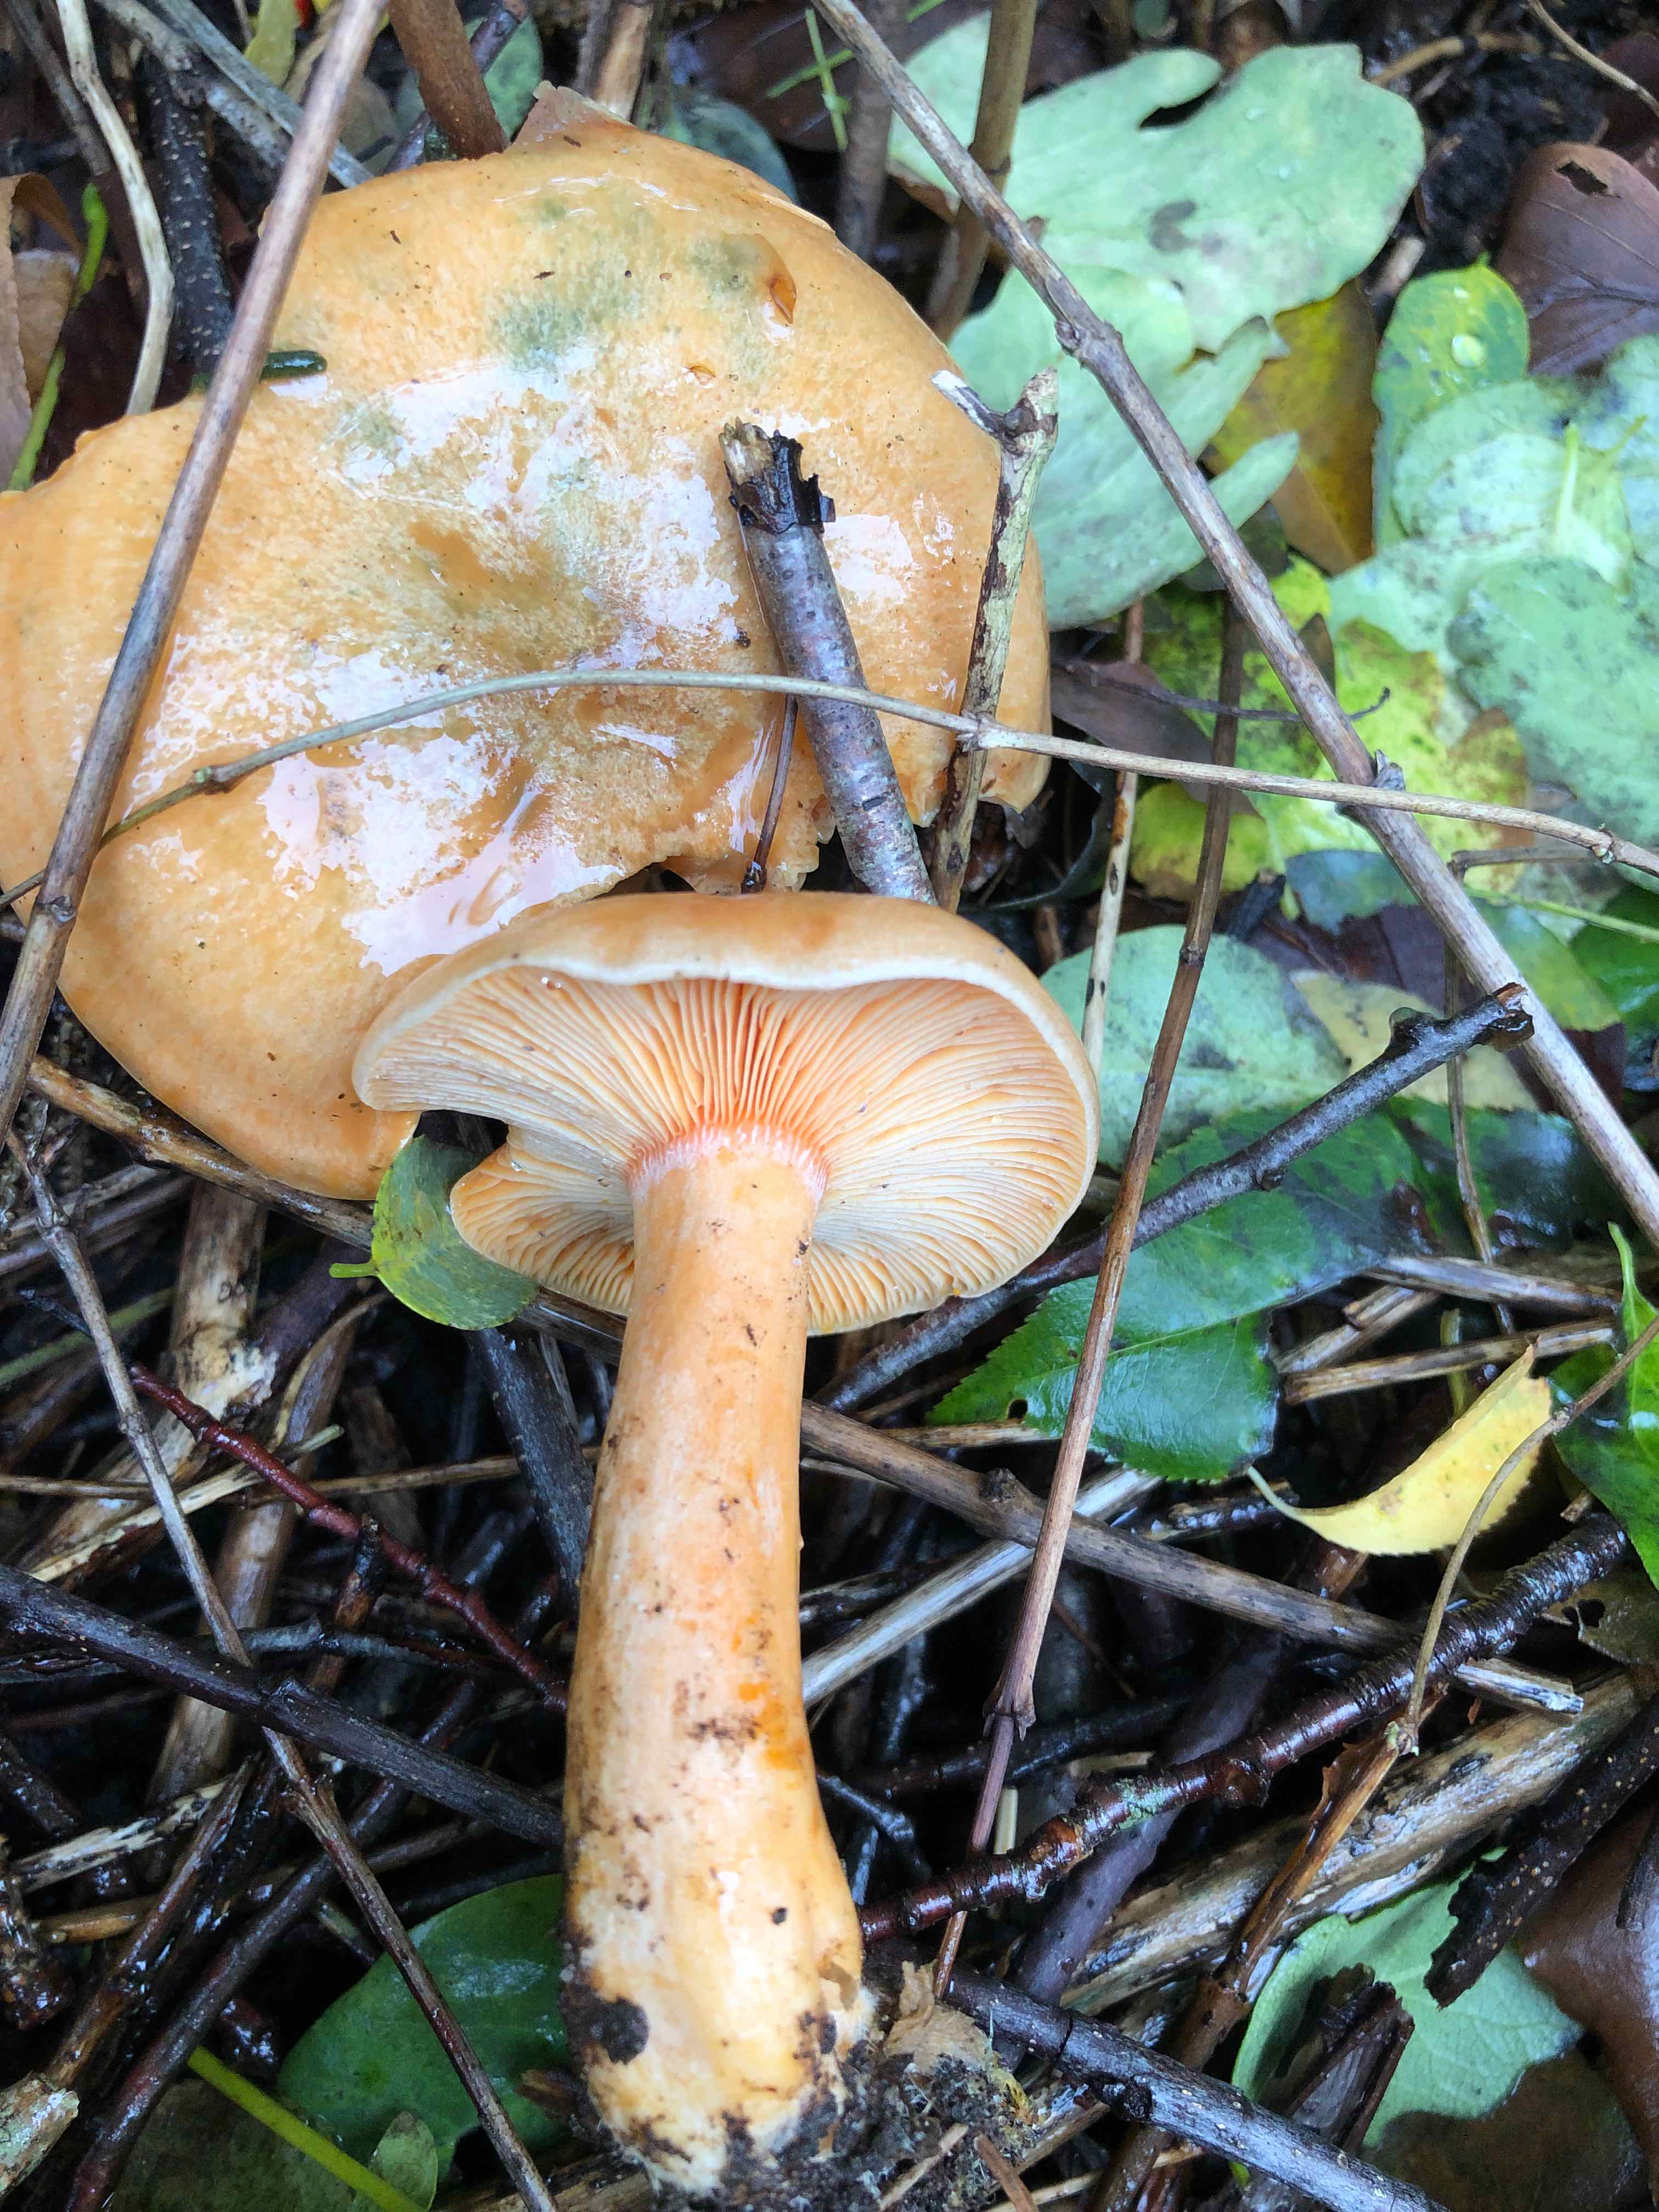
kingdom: Fungi
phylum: Basidiomycota
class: Agaricomycetes
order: Russulales
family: Russulaceae
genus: Lactarius
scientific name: Lactarius deterrimus
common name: gran-mælkehat
